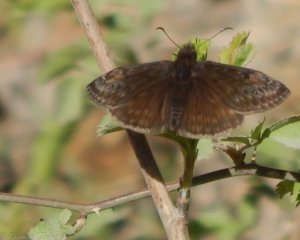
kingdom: Animalia
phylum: Arthropoda
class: Insecta
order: Lepidoptera
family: Hesperiidae
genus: Gesta
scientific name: Gesta
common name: Wild Indigo Duskywing
